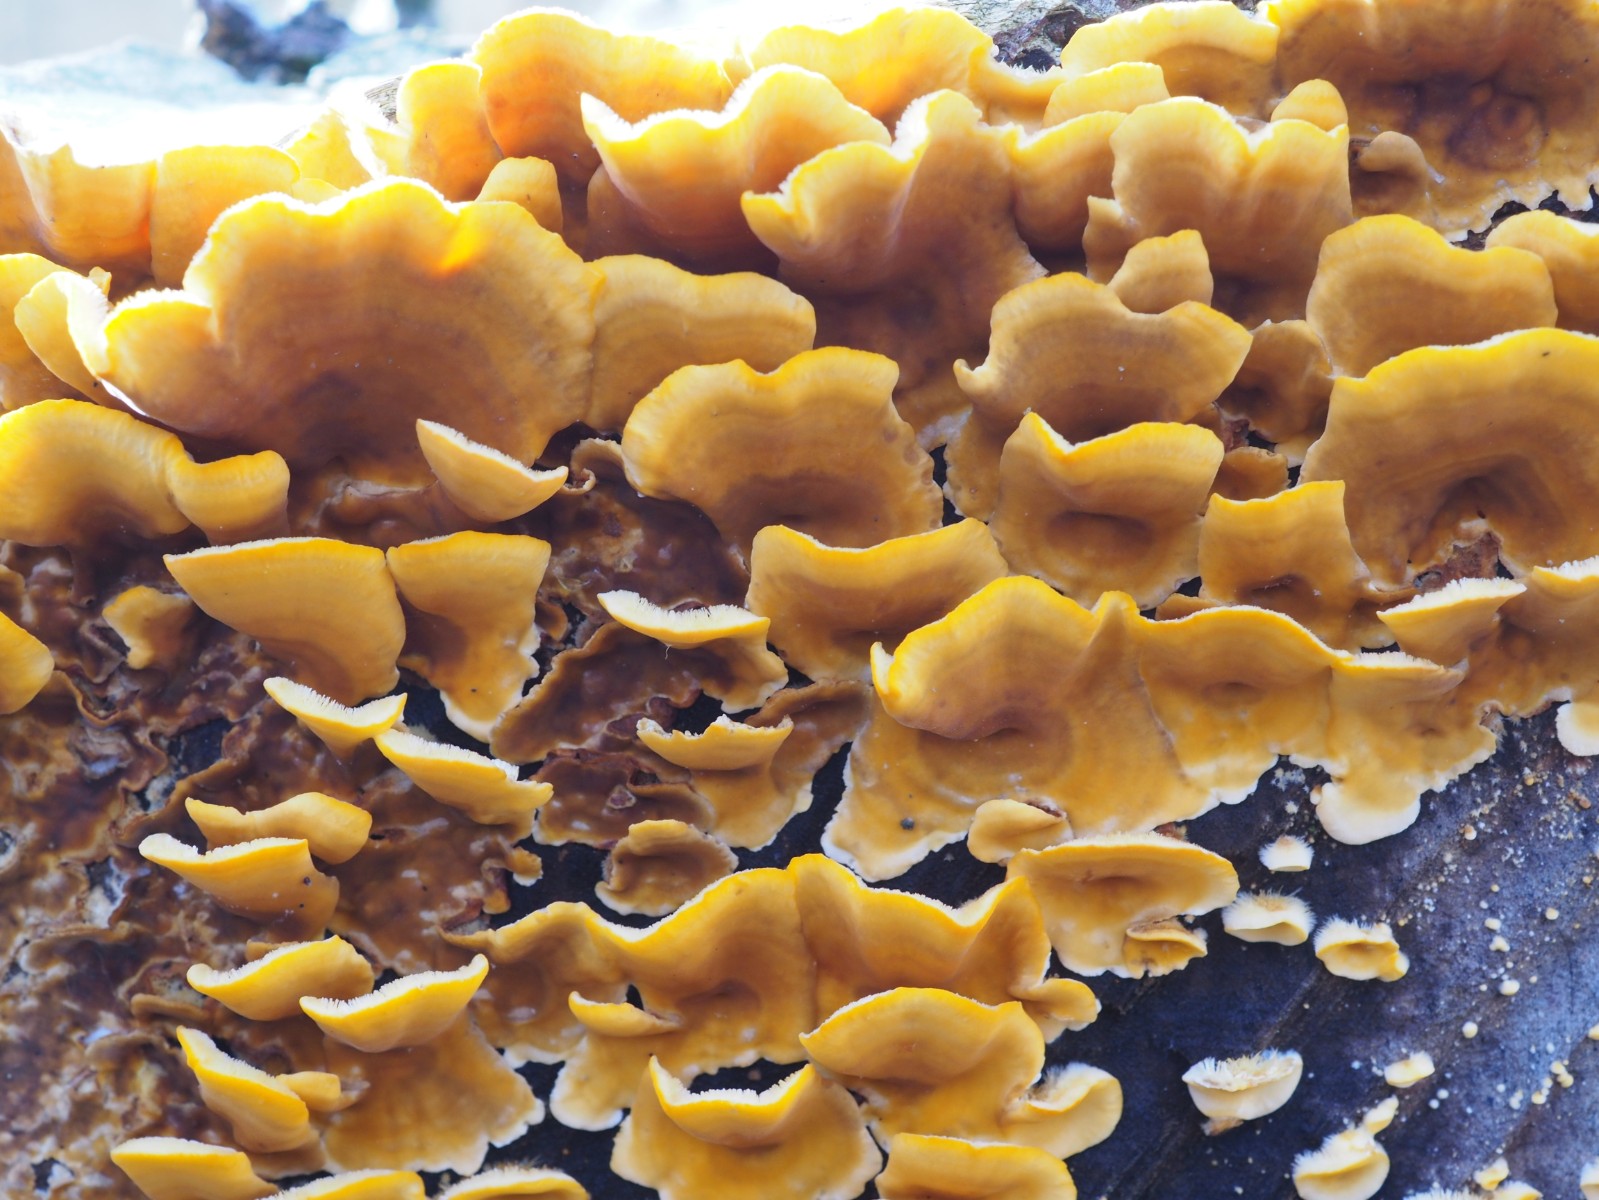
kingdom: Fungi
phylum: Basidiomycota
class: Agaricomycetes
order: Russulales
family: Stereaceae
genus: Stereum
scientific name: Stereum hirsutum
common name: håret lædersvamp
